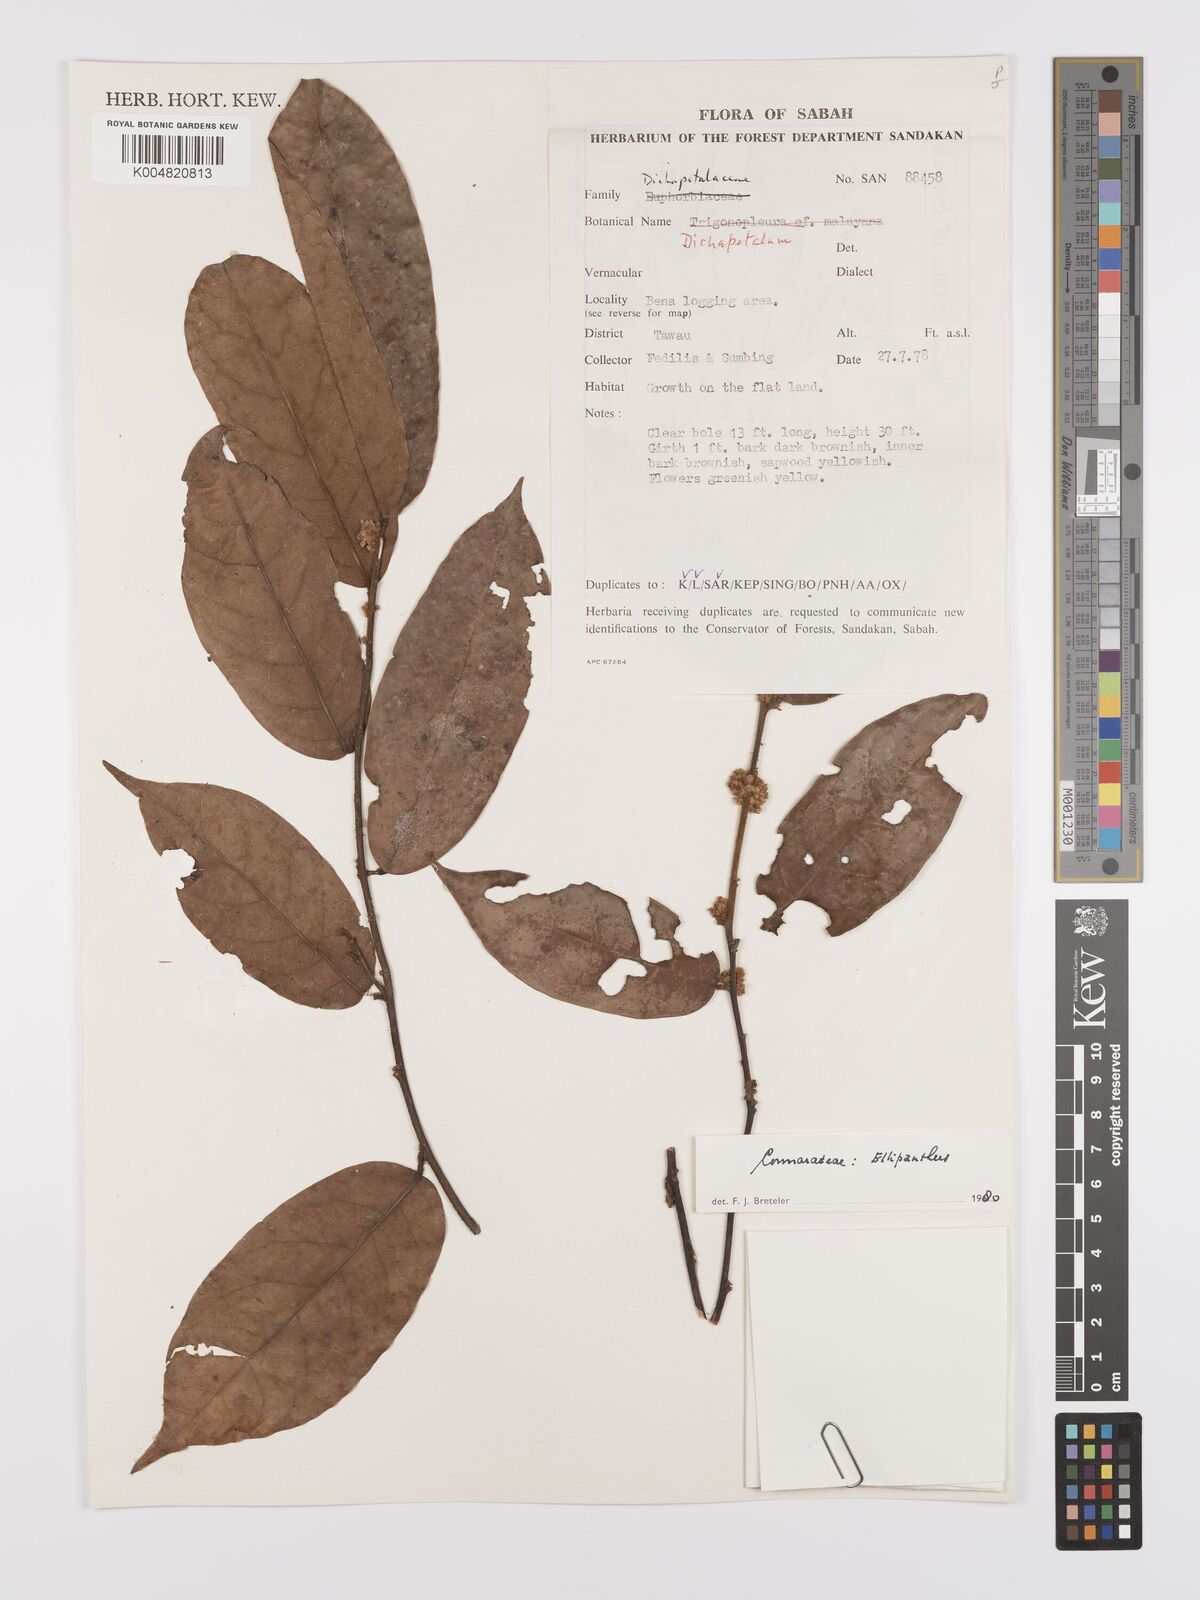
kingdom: Plantae
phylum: Tracheophyta
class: Magnoliopsida
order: Oxalidales
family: Connaraceae
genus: Ellipanthus
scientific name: Ellipanthus
